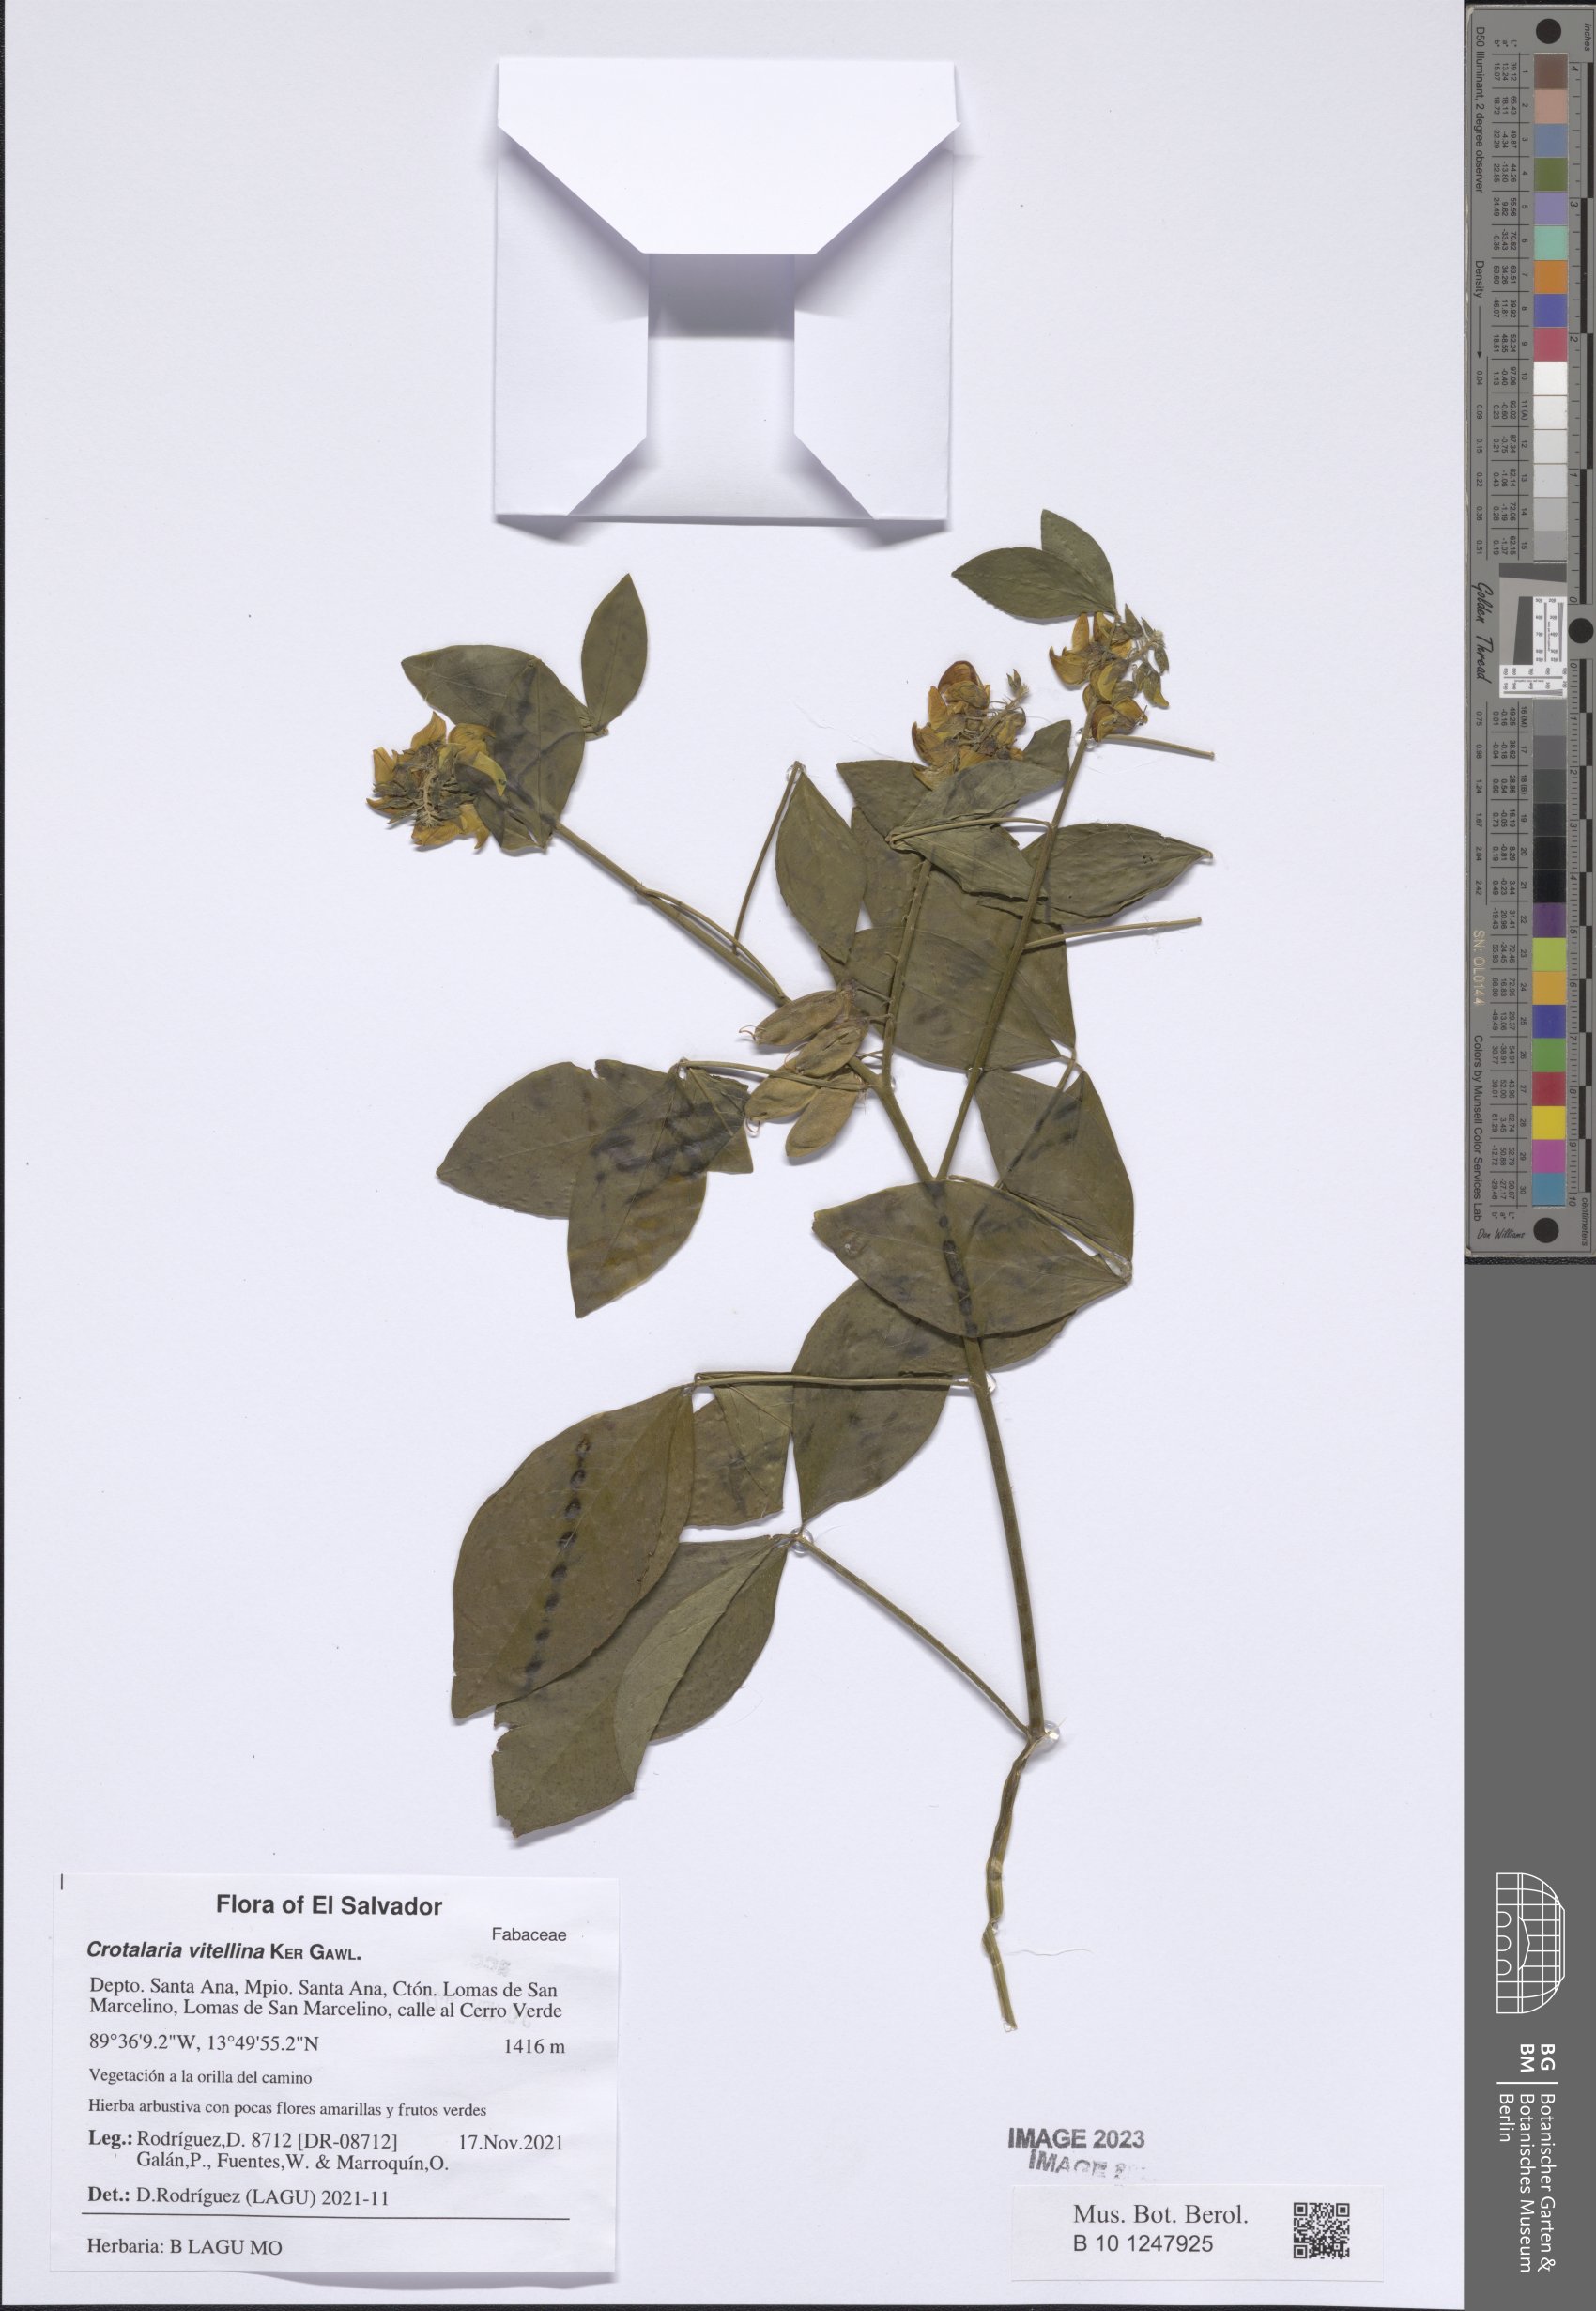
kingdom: Plantae
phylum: Tracheophyta
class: Magnoliopsida
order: Fabales
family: Fabaceae
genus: Crotalaria
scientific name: Crotalaria vitellina
